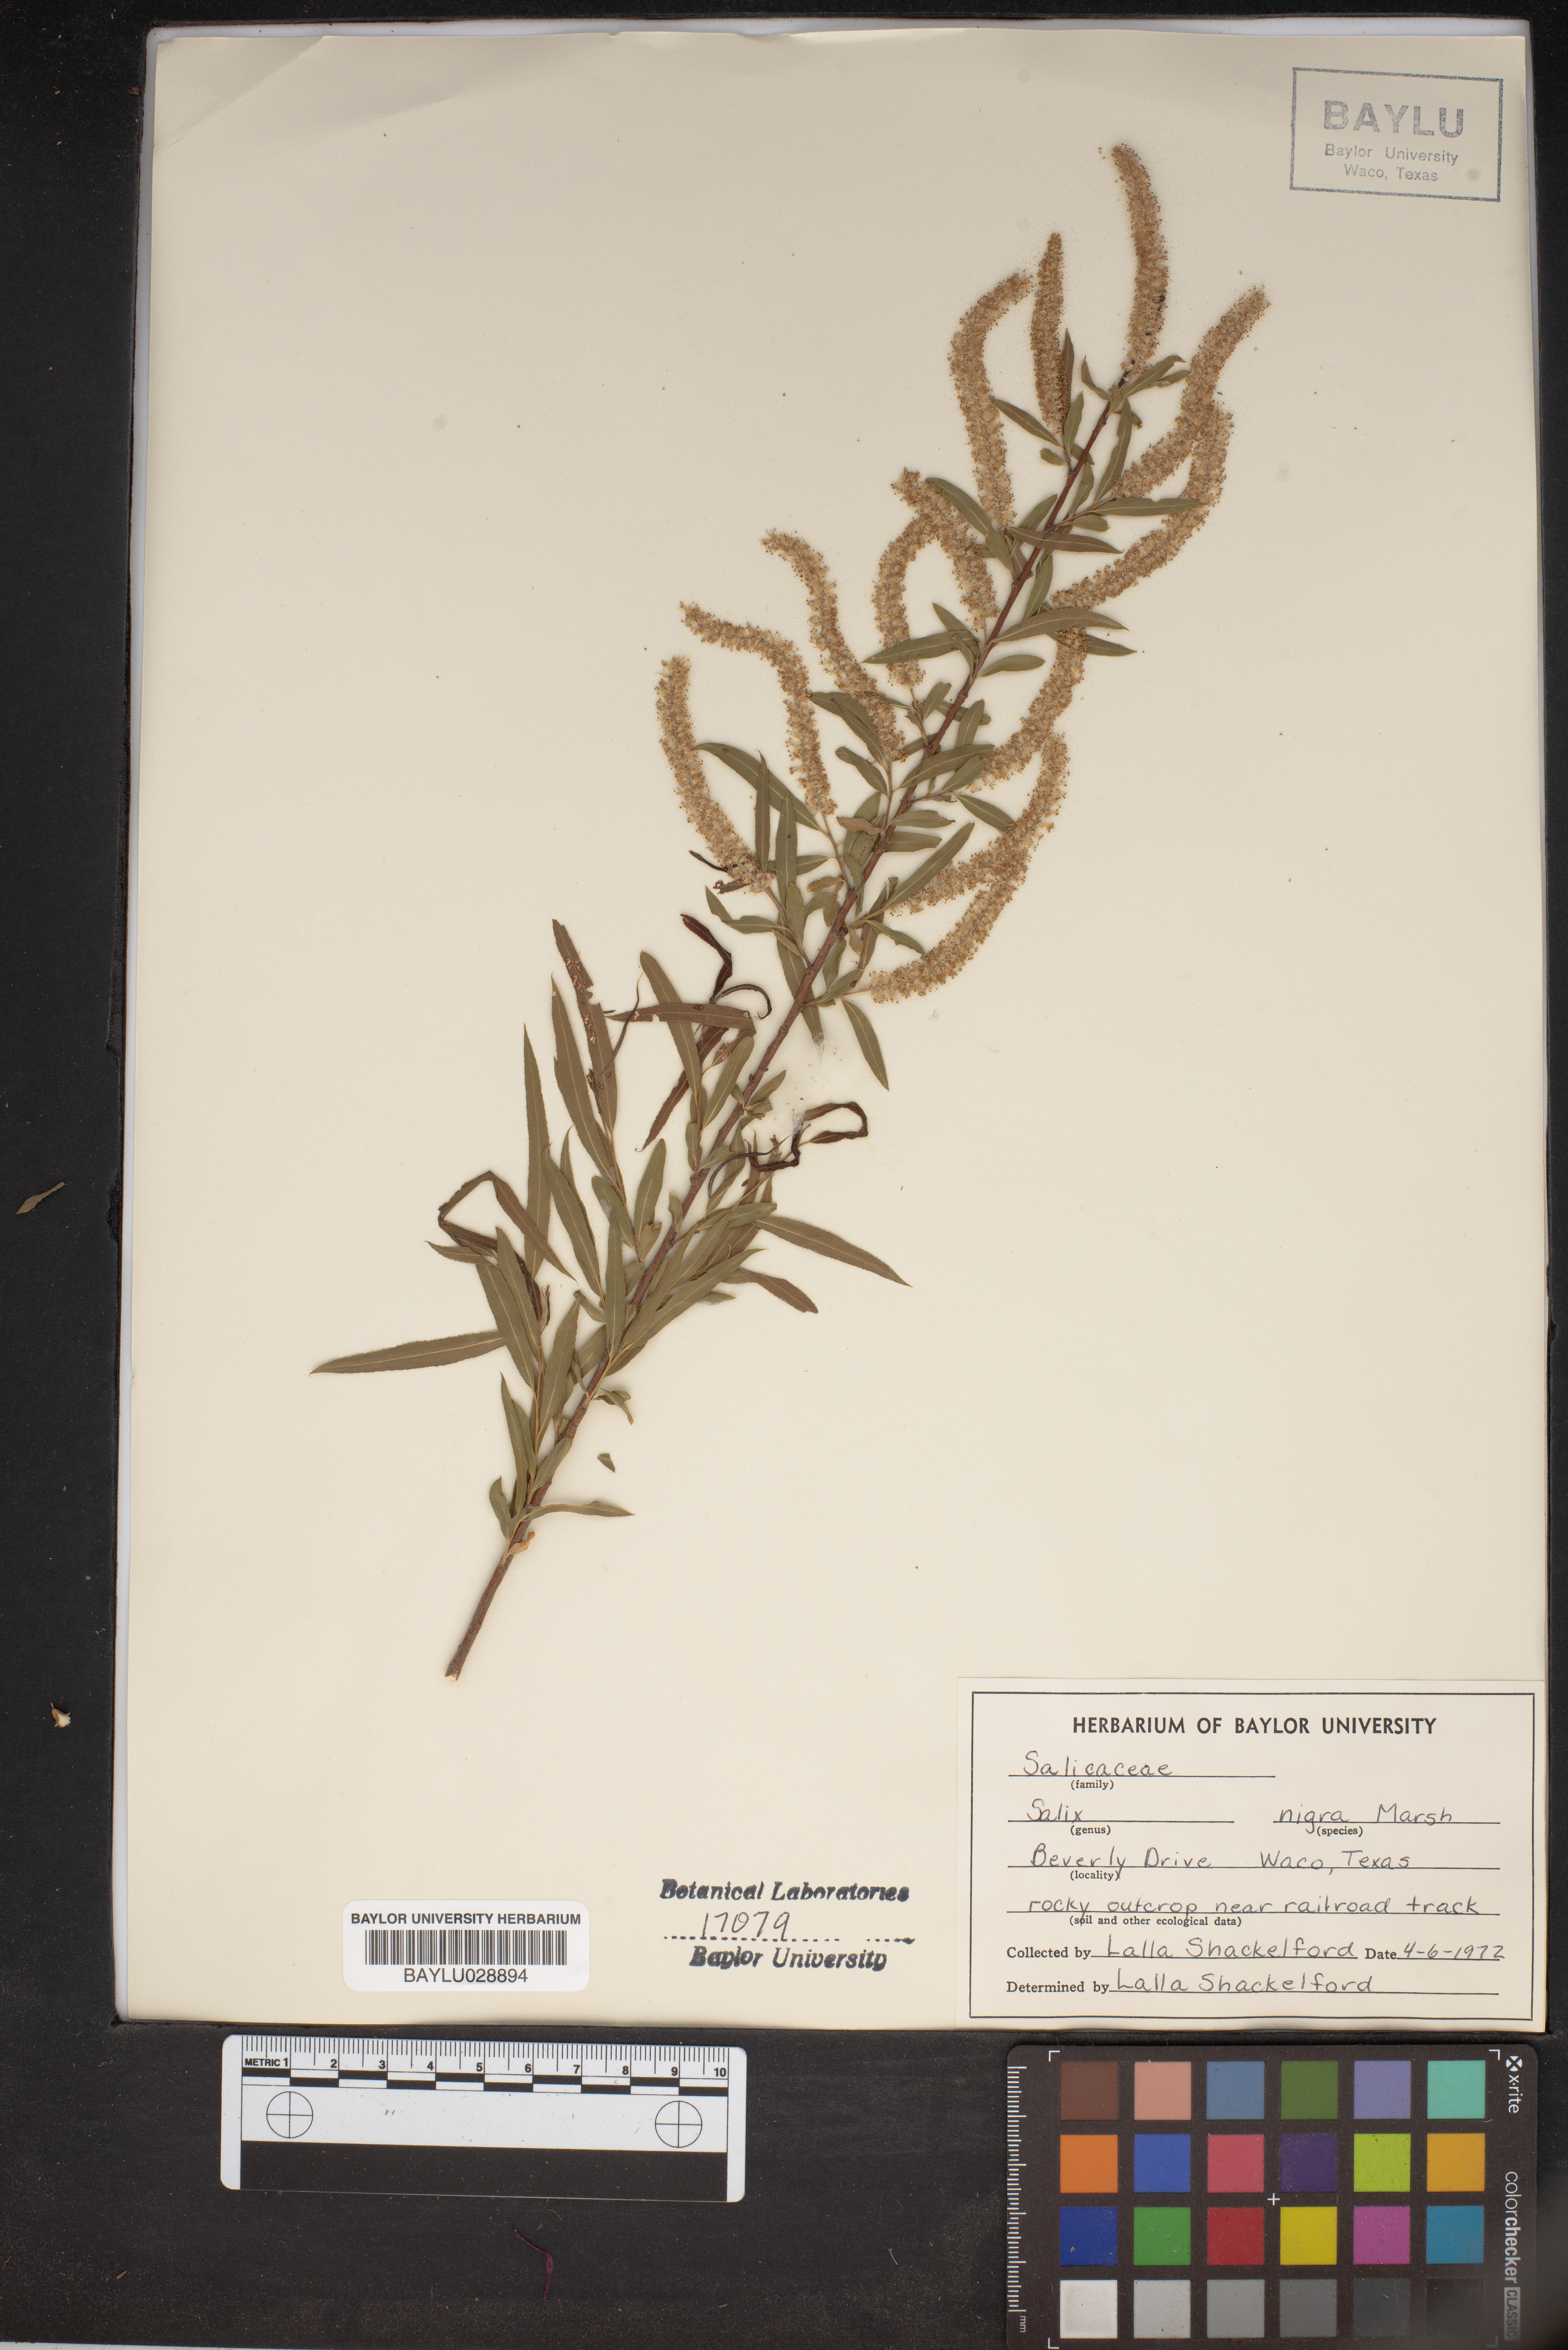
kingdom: Plantae
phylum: Tracheophyta
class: Magnoliopsida
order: Malpighiales
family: Salicaceae
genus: Salix
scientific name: Salix nigra
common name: Black willow
